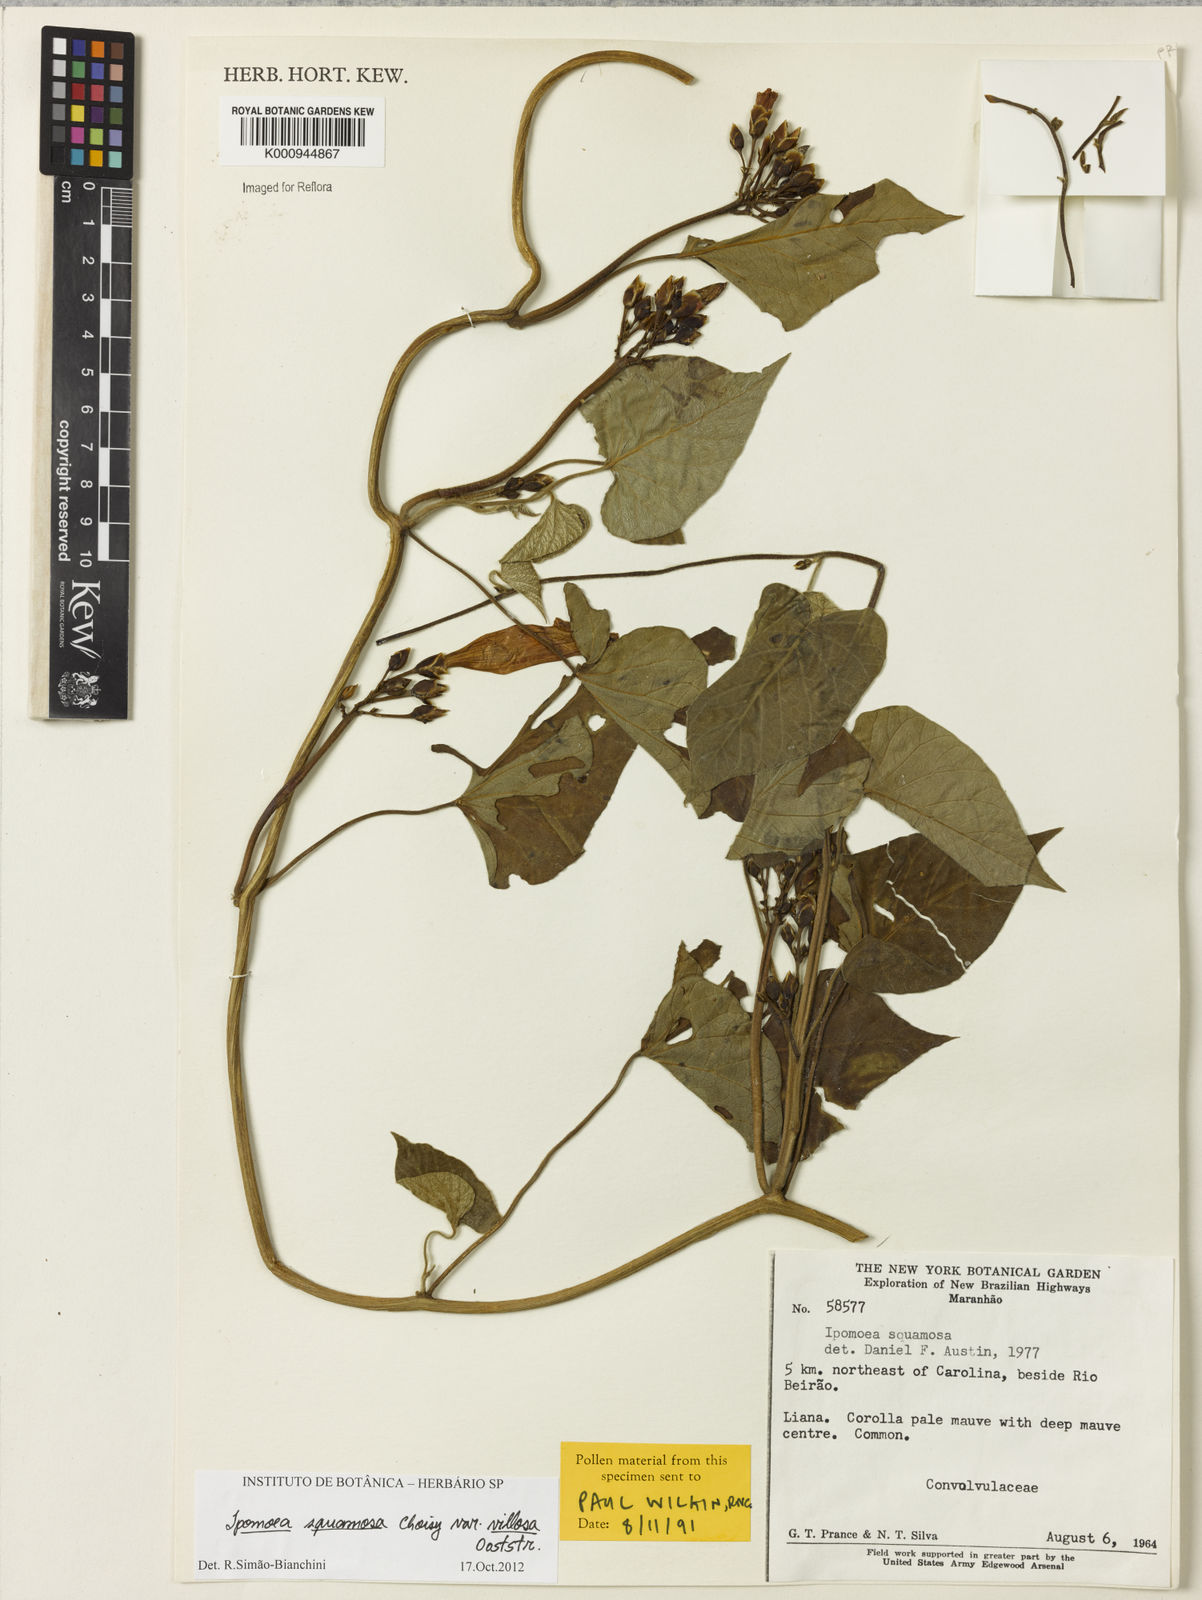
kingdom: Plantae
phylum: Tracheophyta
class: Magnoliopsida
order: Solanales
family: Convolvulaceae
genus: Ipomoea
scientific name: Ipomoea squamosa
